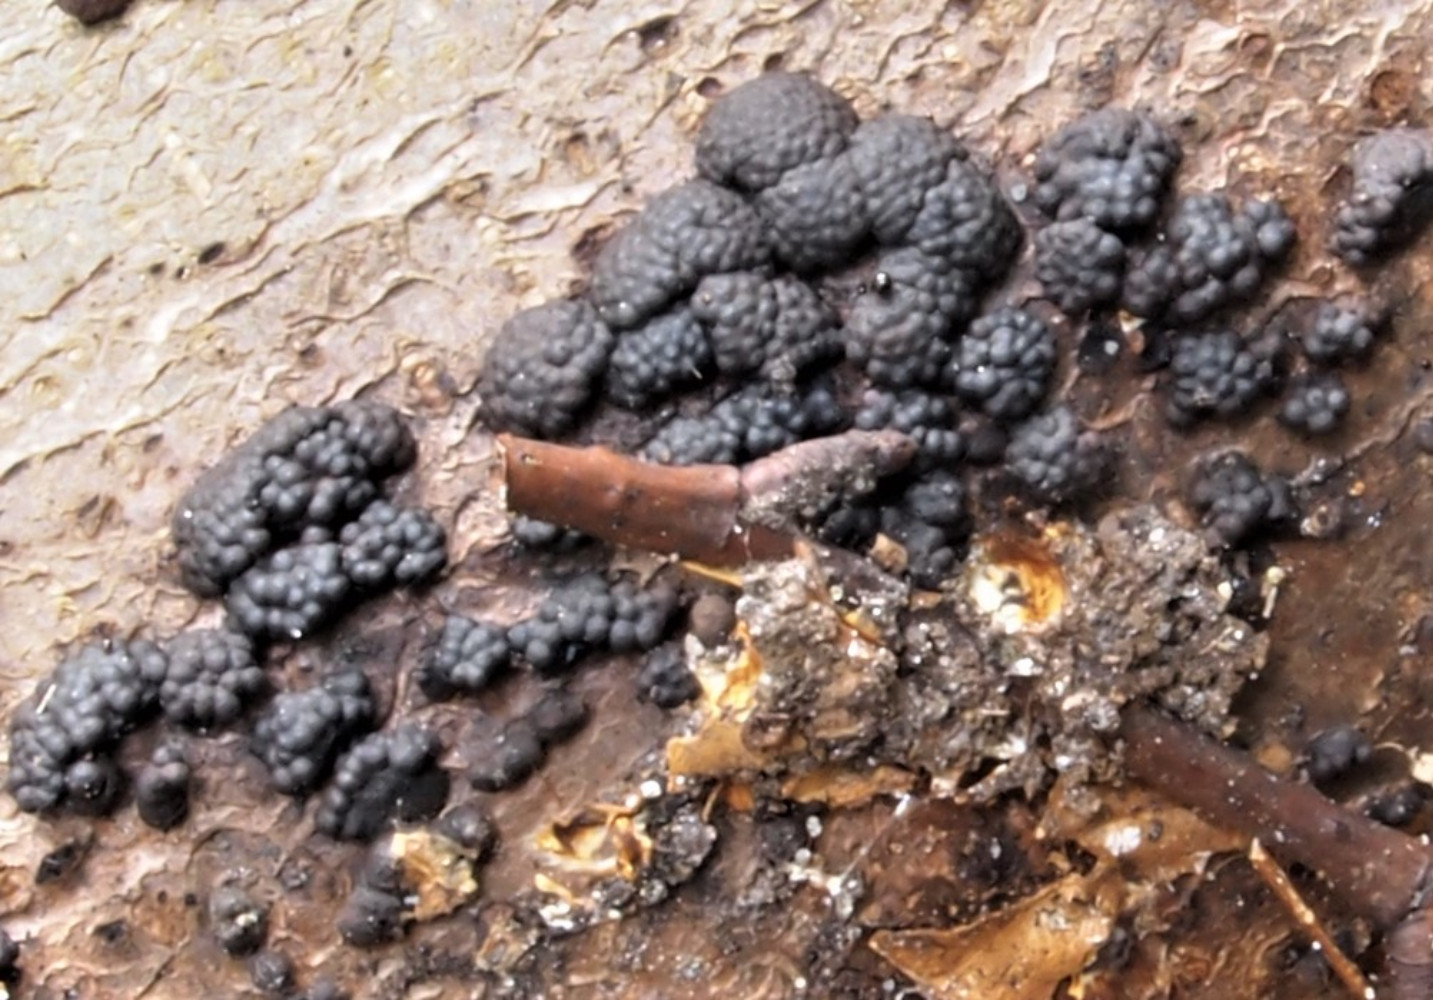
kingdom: Fungi
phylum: Ascomycota
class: Sordariomycetes
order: Xylariales
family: Hypoxylaceae
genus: Jackrogersella
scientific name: Jackrogersella cohaerens
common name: sammenflydende kulbær
